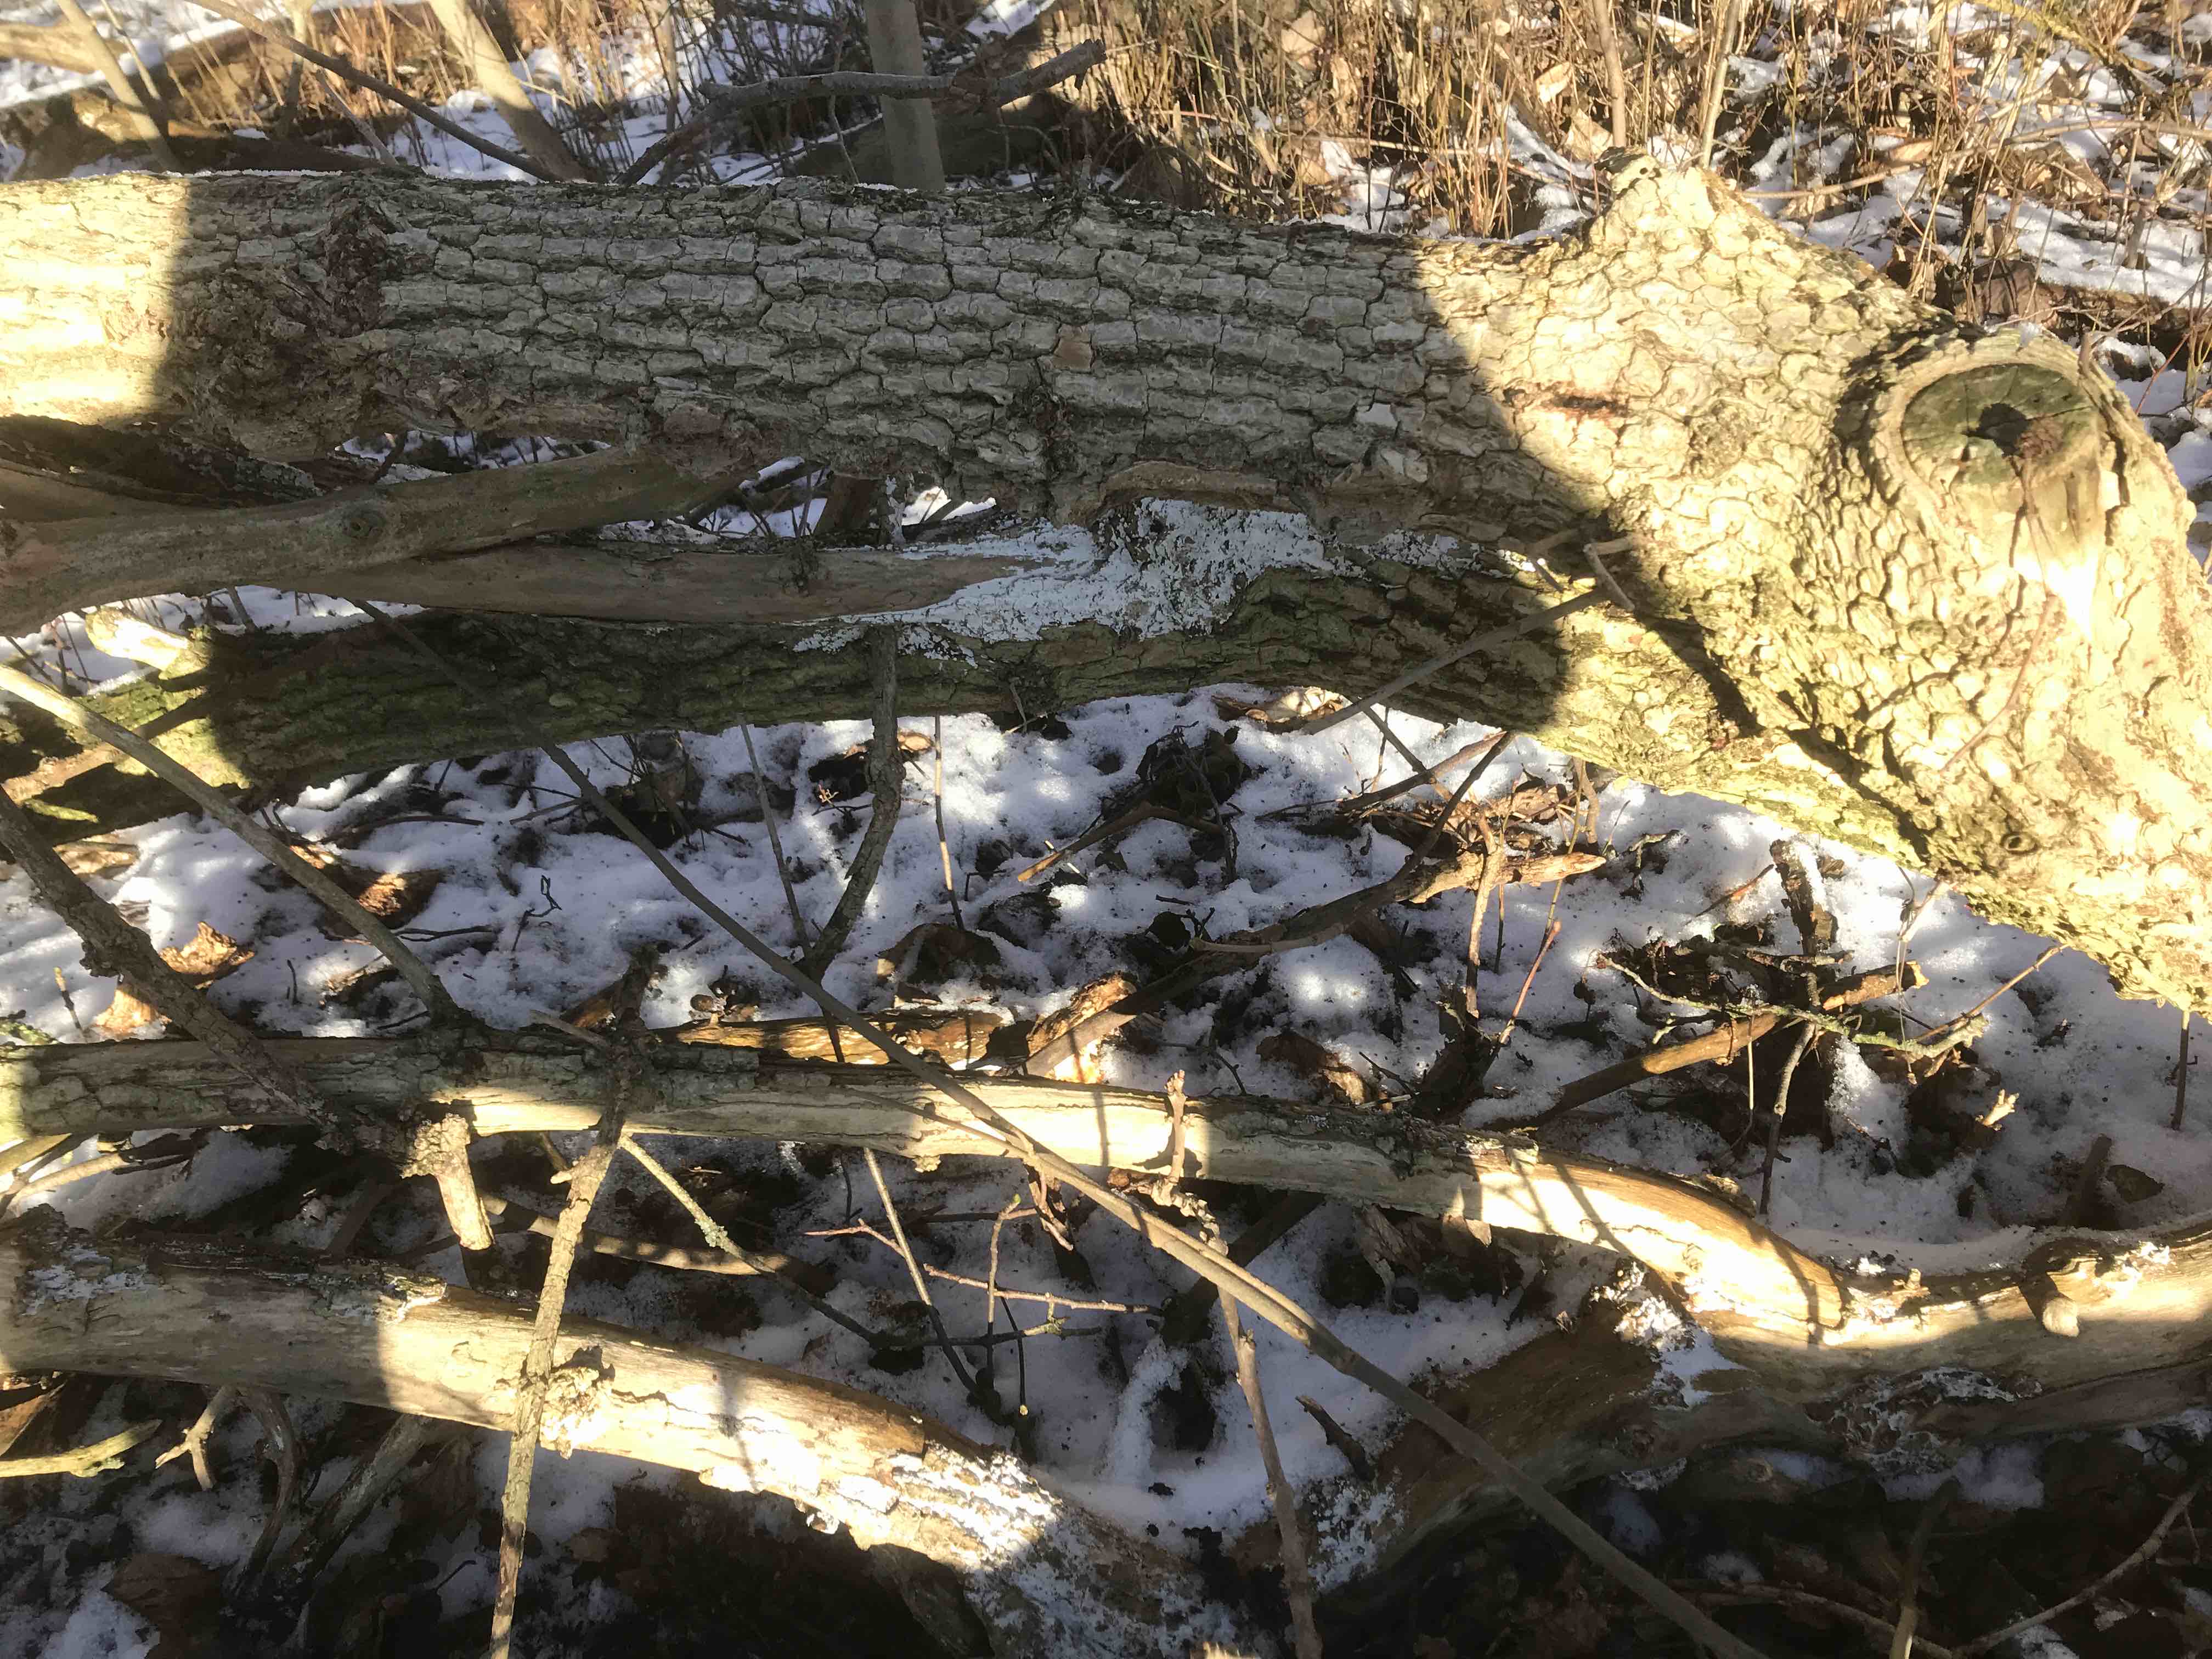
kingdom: Fungi
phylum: Basidiomycota
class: Agaricomycetes
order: Corticiales
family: Corticiaceae
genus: Lyomyces
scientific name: Lyomyces sambuci
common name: almindelig hyldehinde
